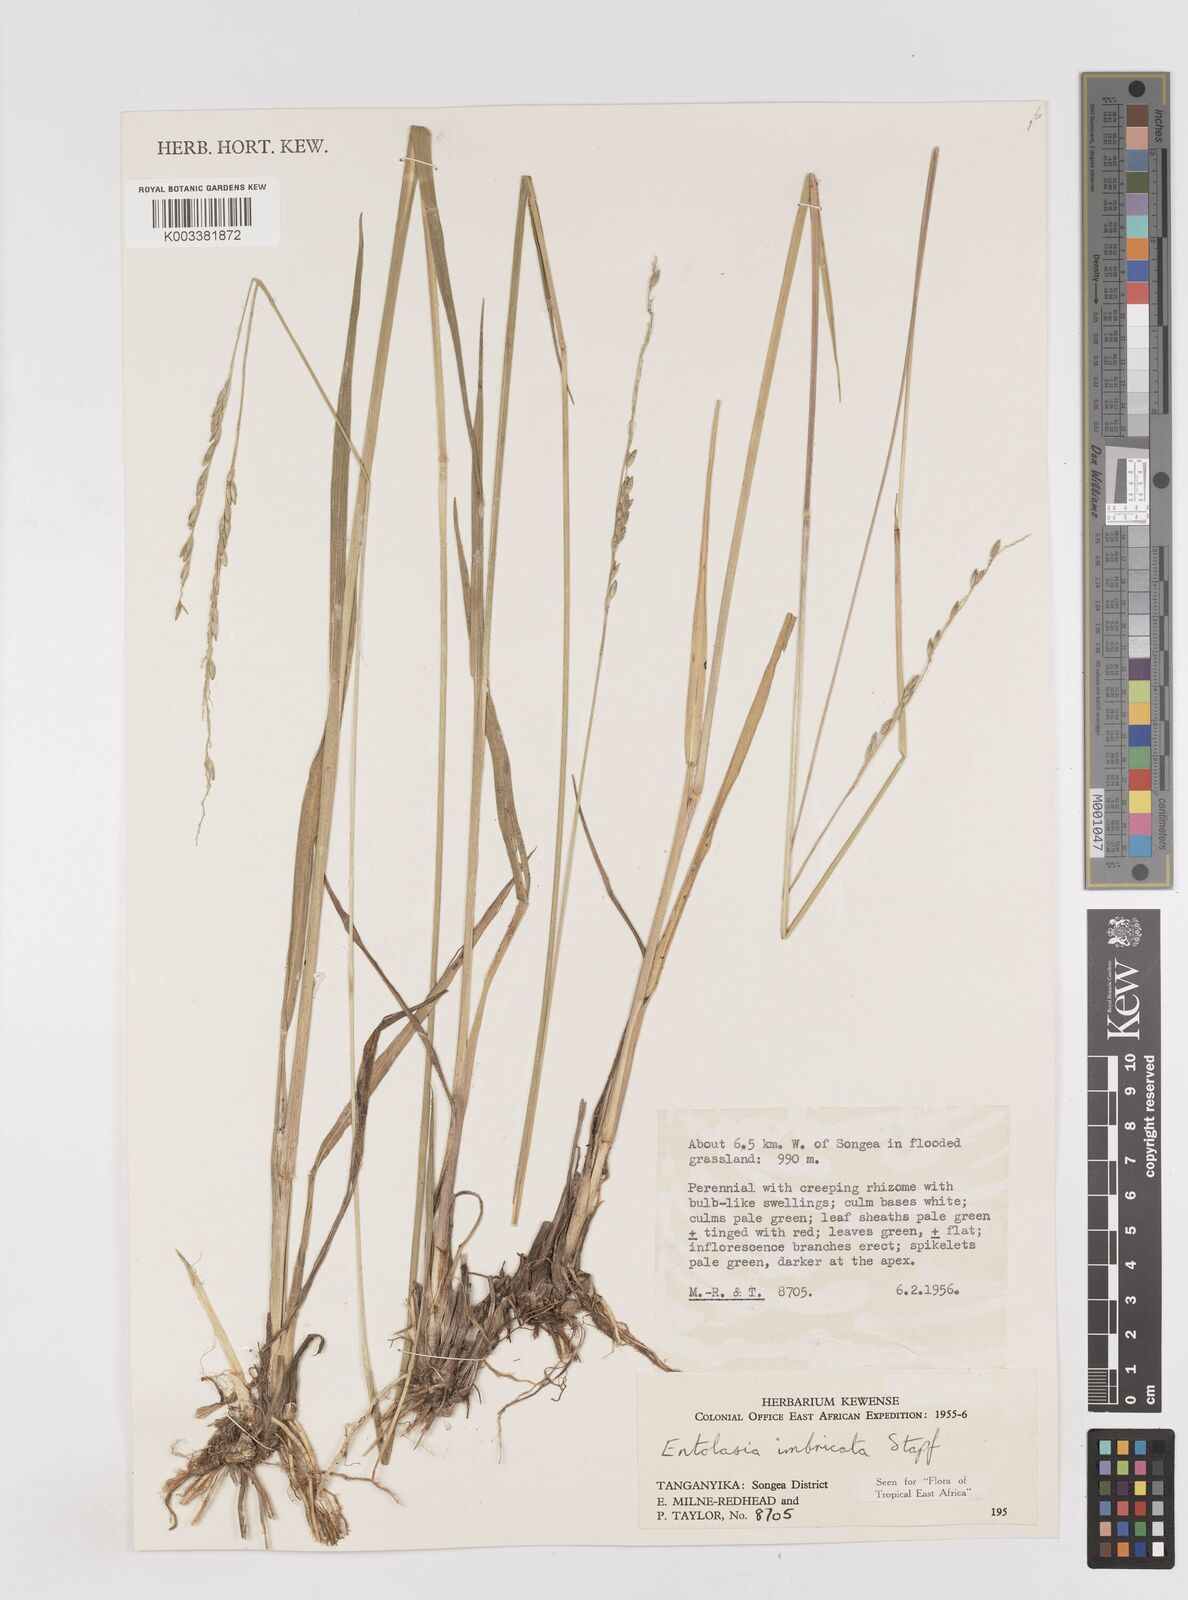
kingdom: Plantae
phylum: Tracheophyta
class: Liliopsida
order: Poales
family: Poaceae
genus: Entolasia
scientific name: Entolasia imbricata
